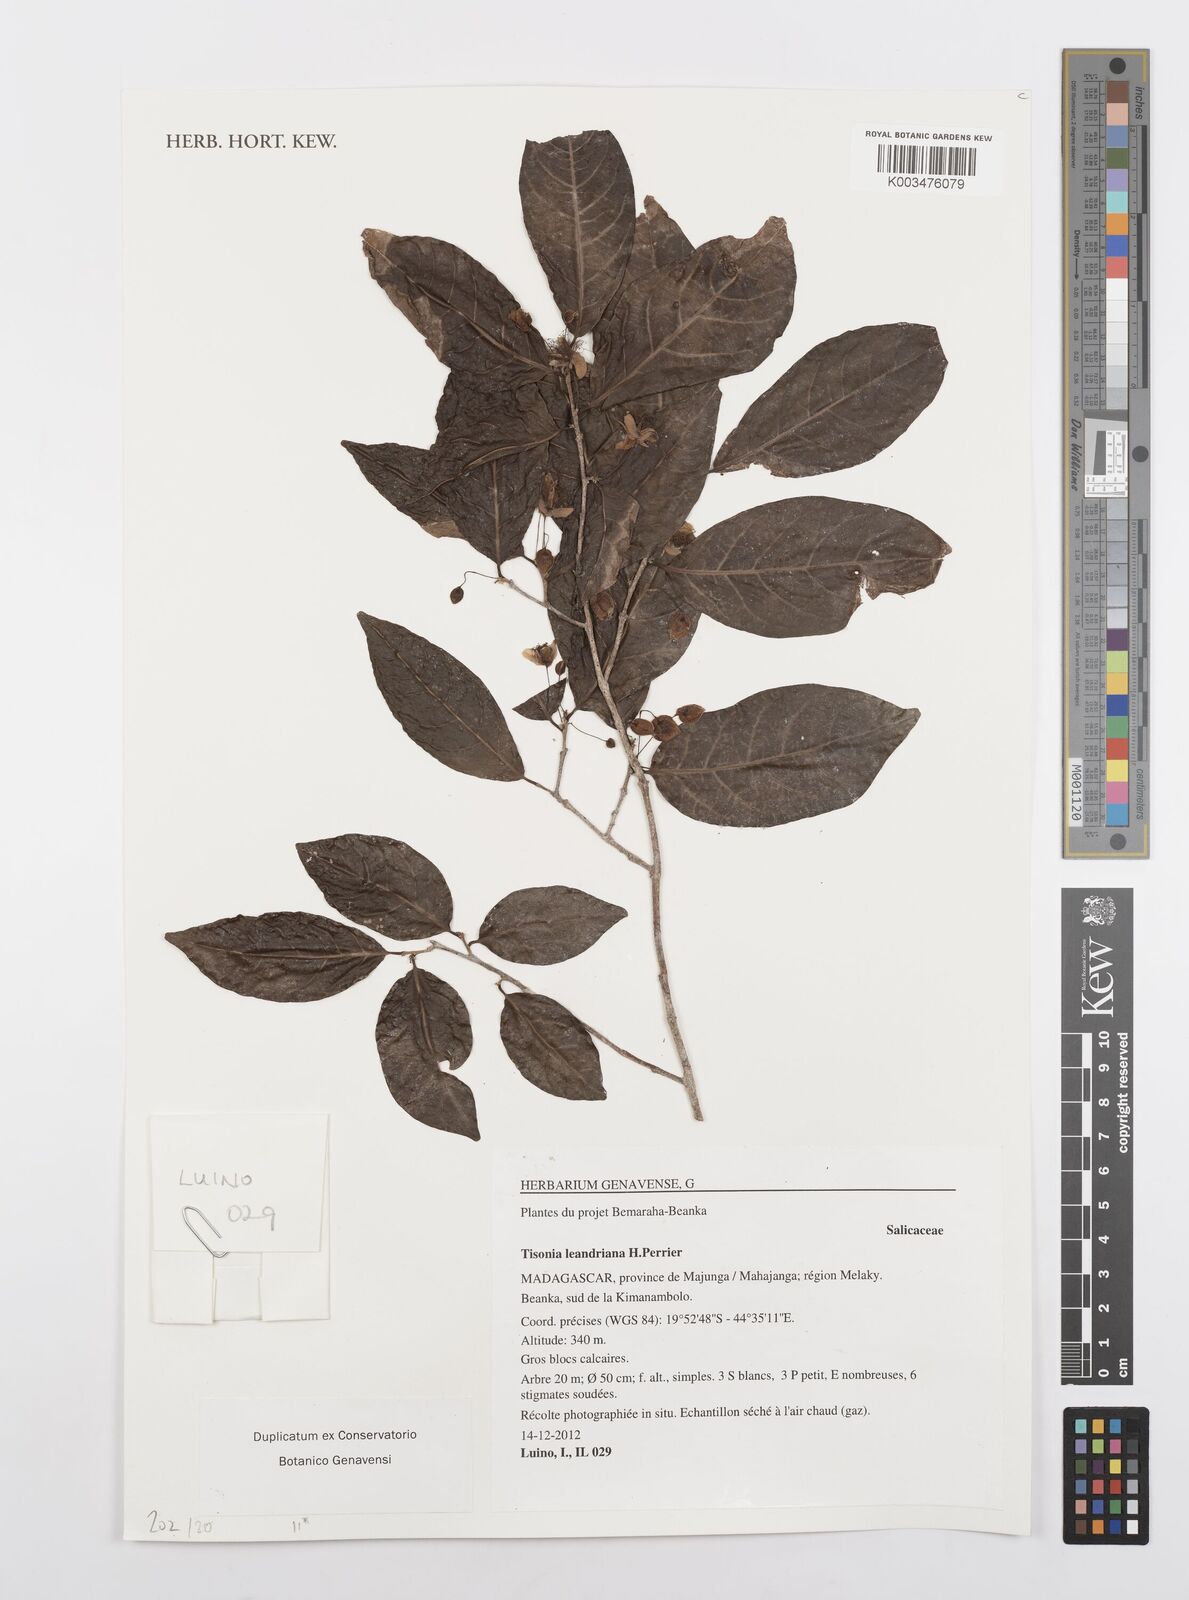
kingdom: Plantae
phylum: Tracheophyta
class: Magnoliopsida
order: Malpighiales
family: Salicaceae
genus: Tisonia
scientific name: Tisonia leandriana
